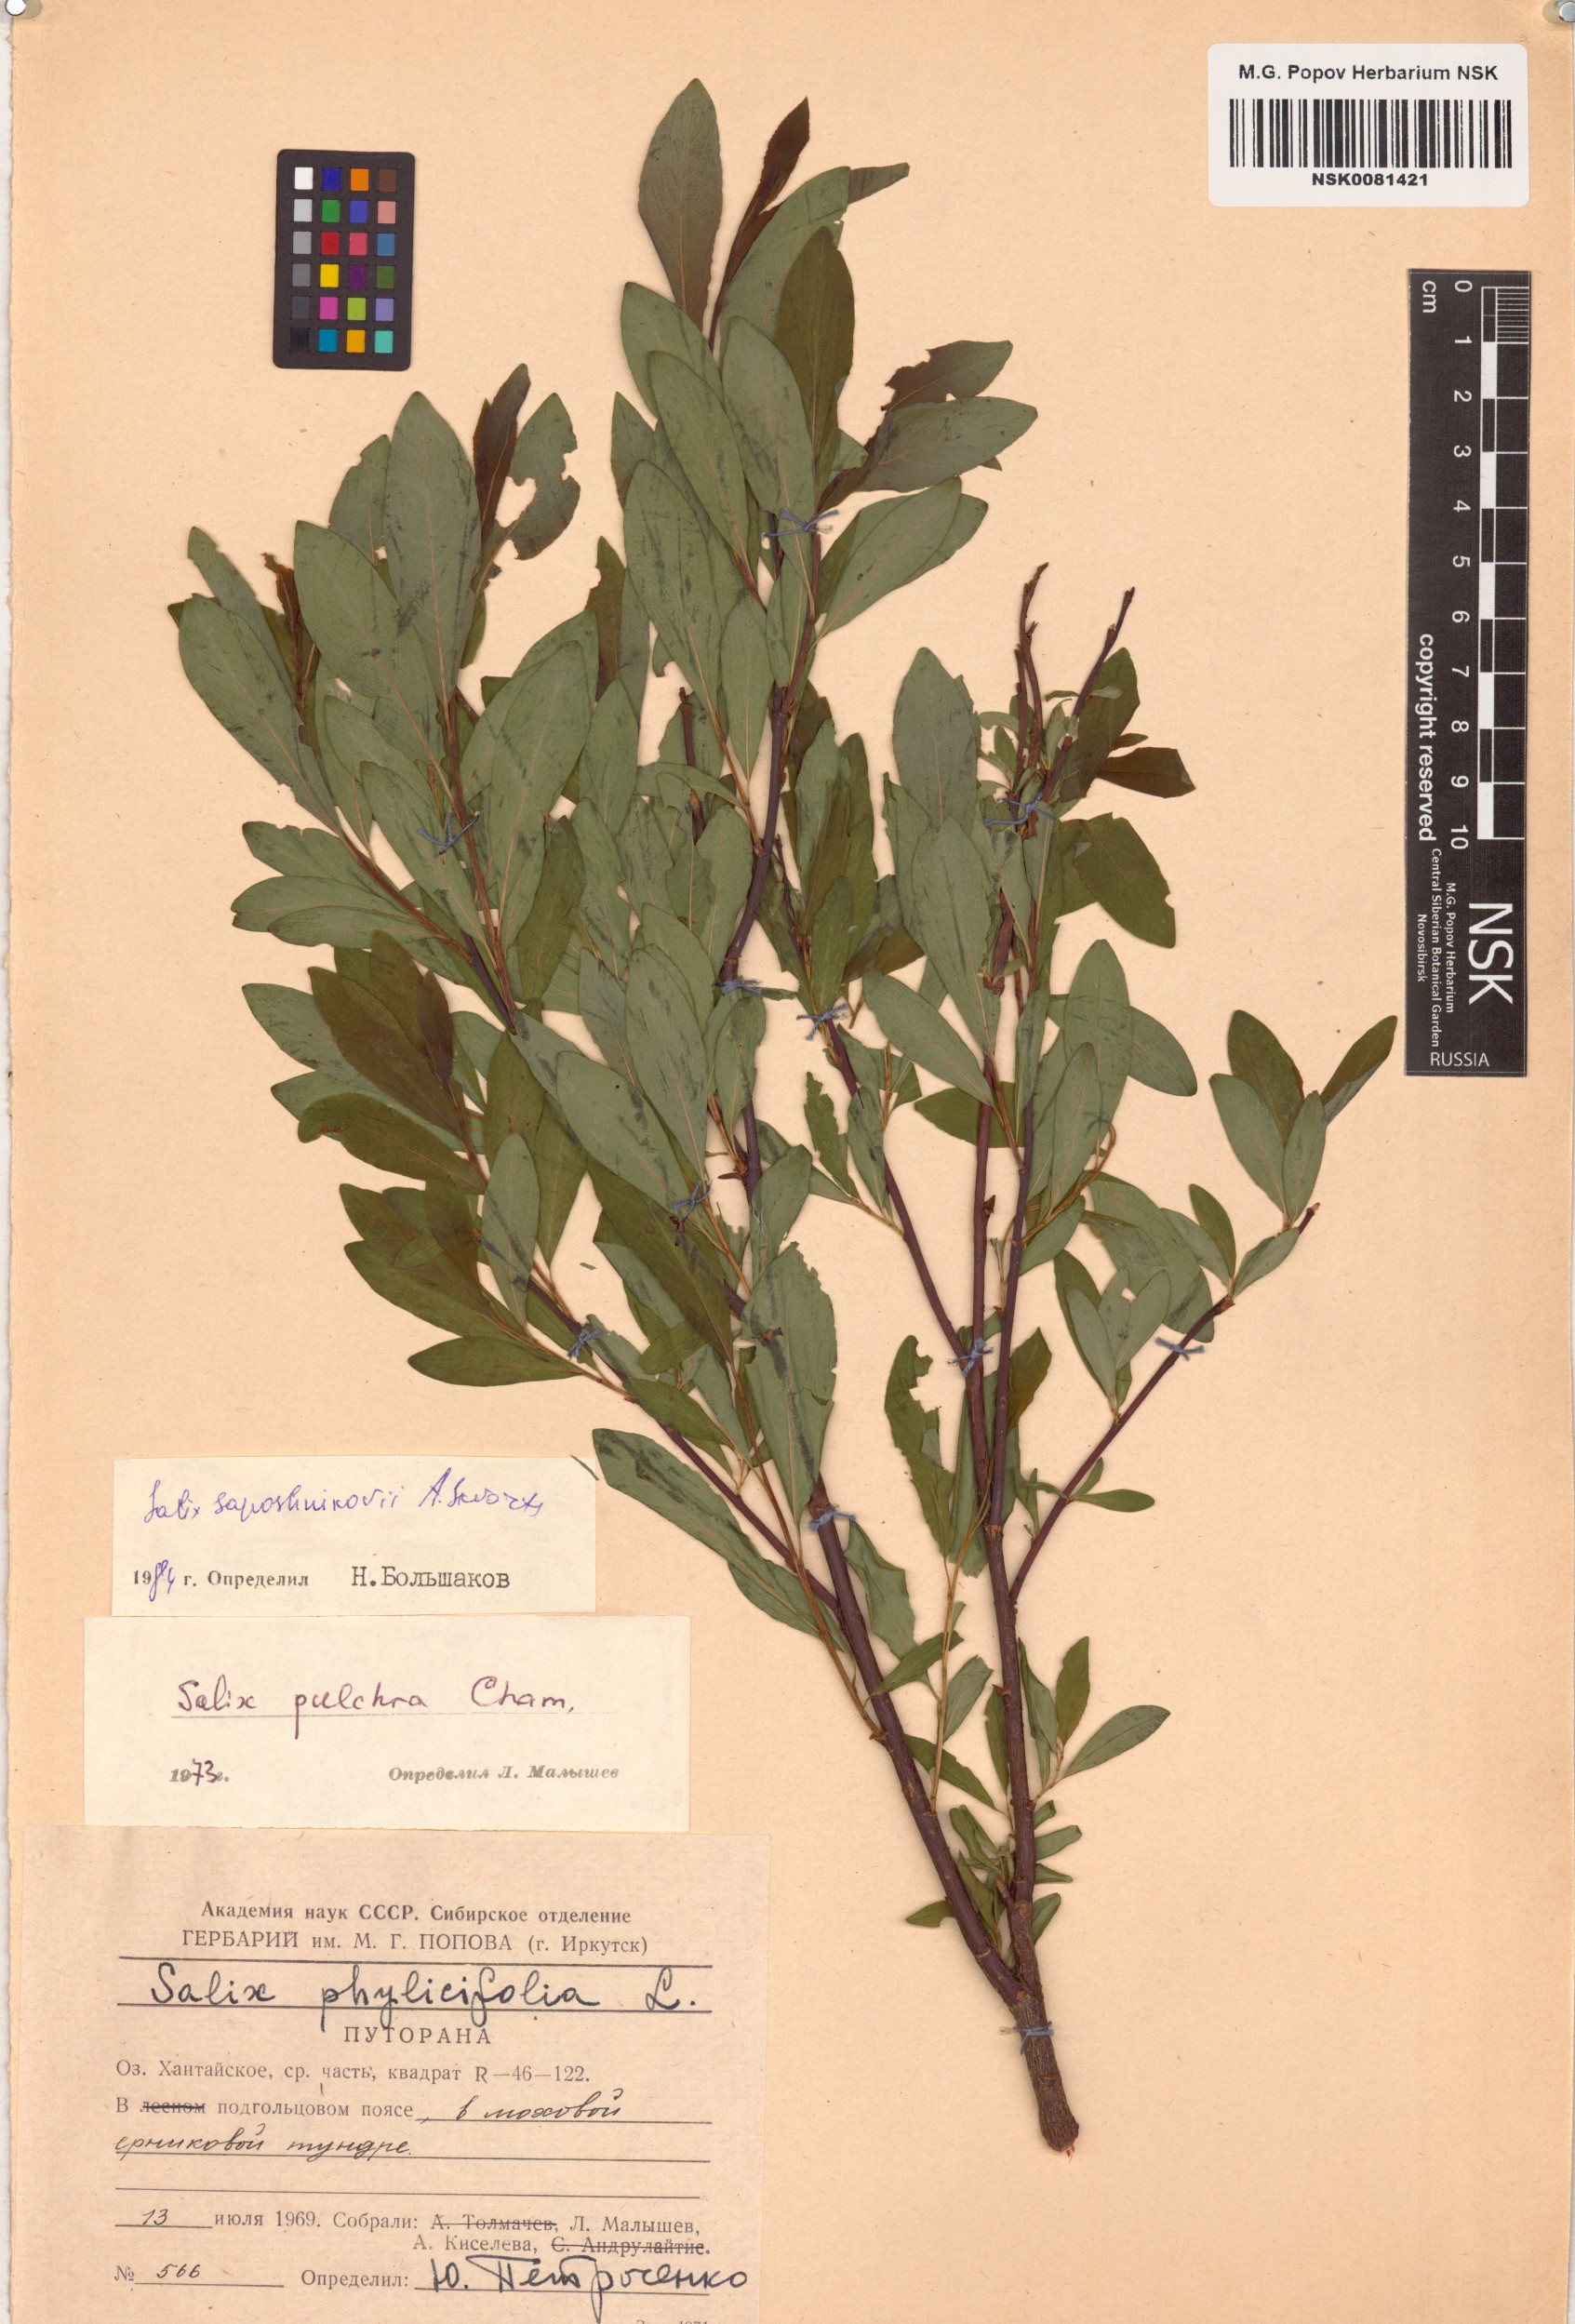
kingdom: Plantae
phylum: Tracheophyta
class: Magnoliopsida
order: Malpighiales
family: Salicaceae
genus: Salix
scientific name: Salix saposhnikovii
